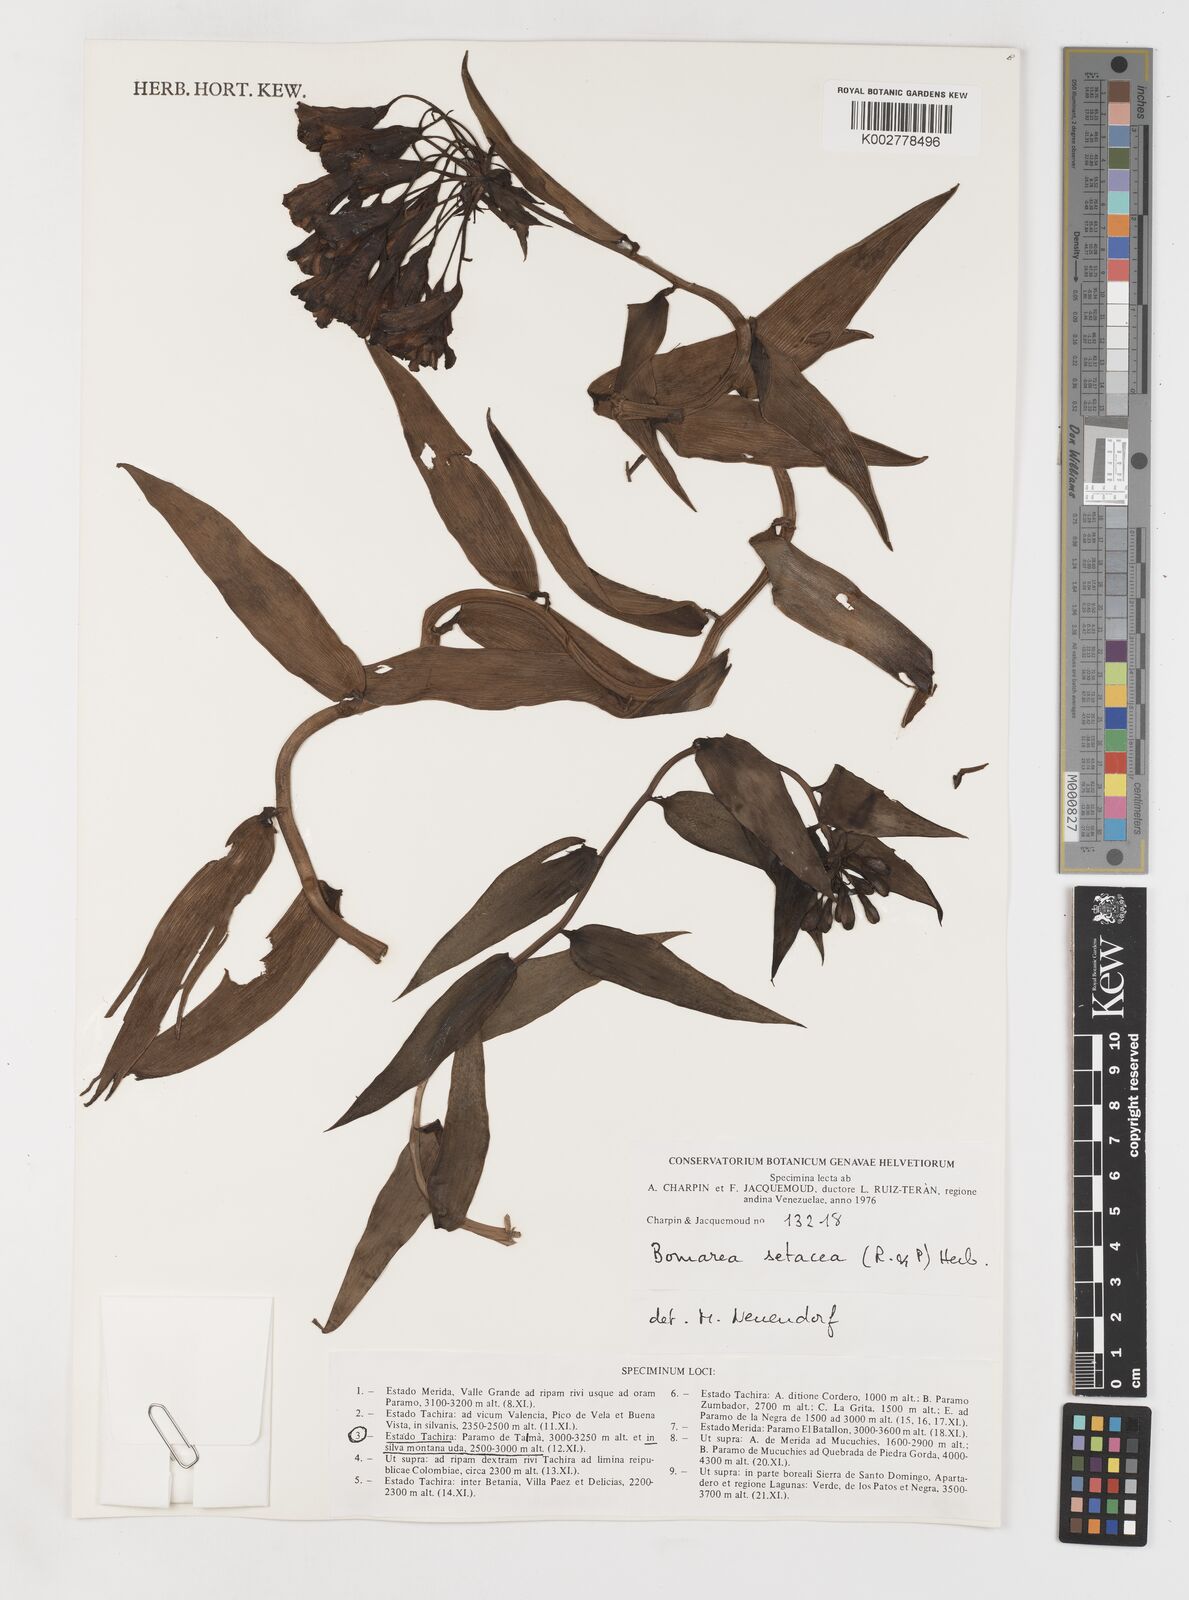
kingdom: Plantae
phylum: Tracheophyta
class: Liliopsida
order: Liliales
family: Alstroemeriaceae
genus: Bomarea
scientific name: Bomarea setacea
